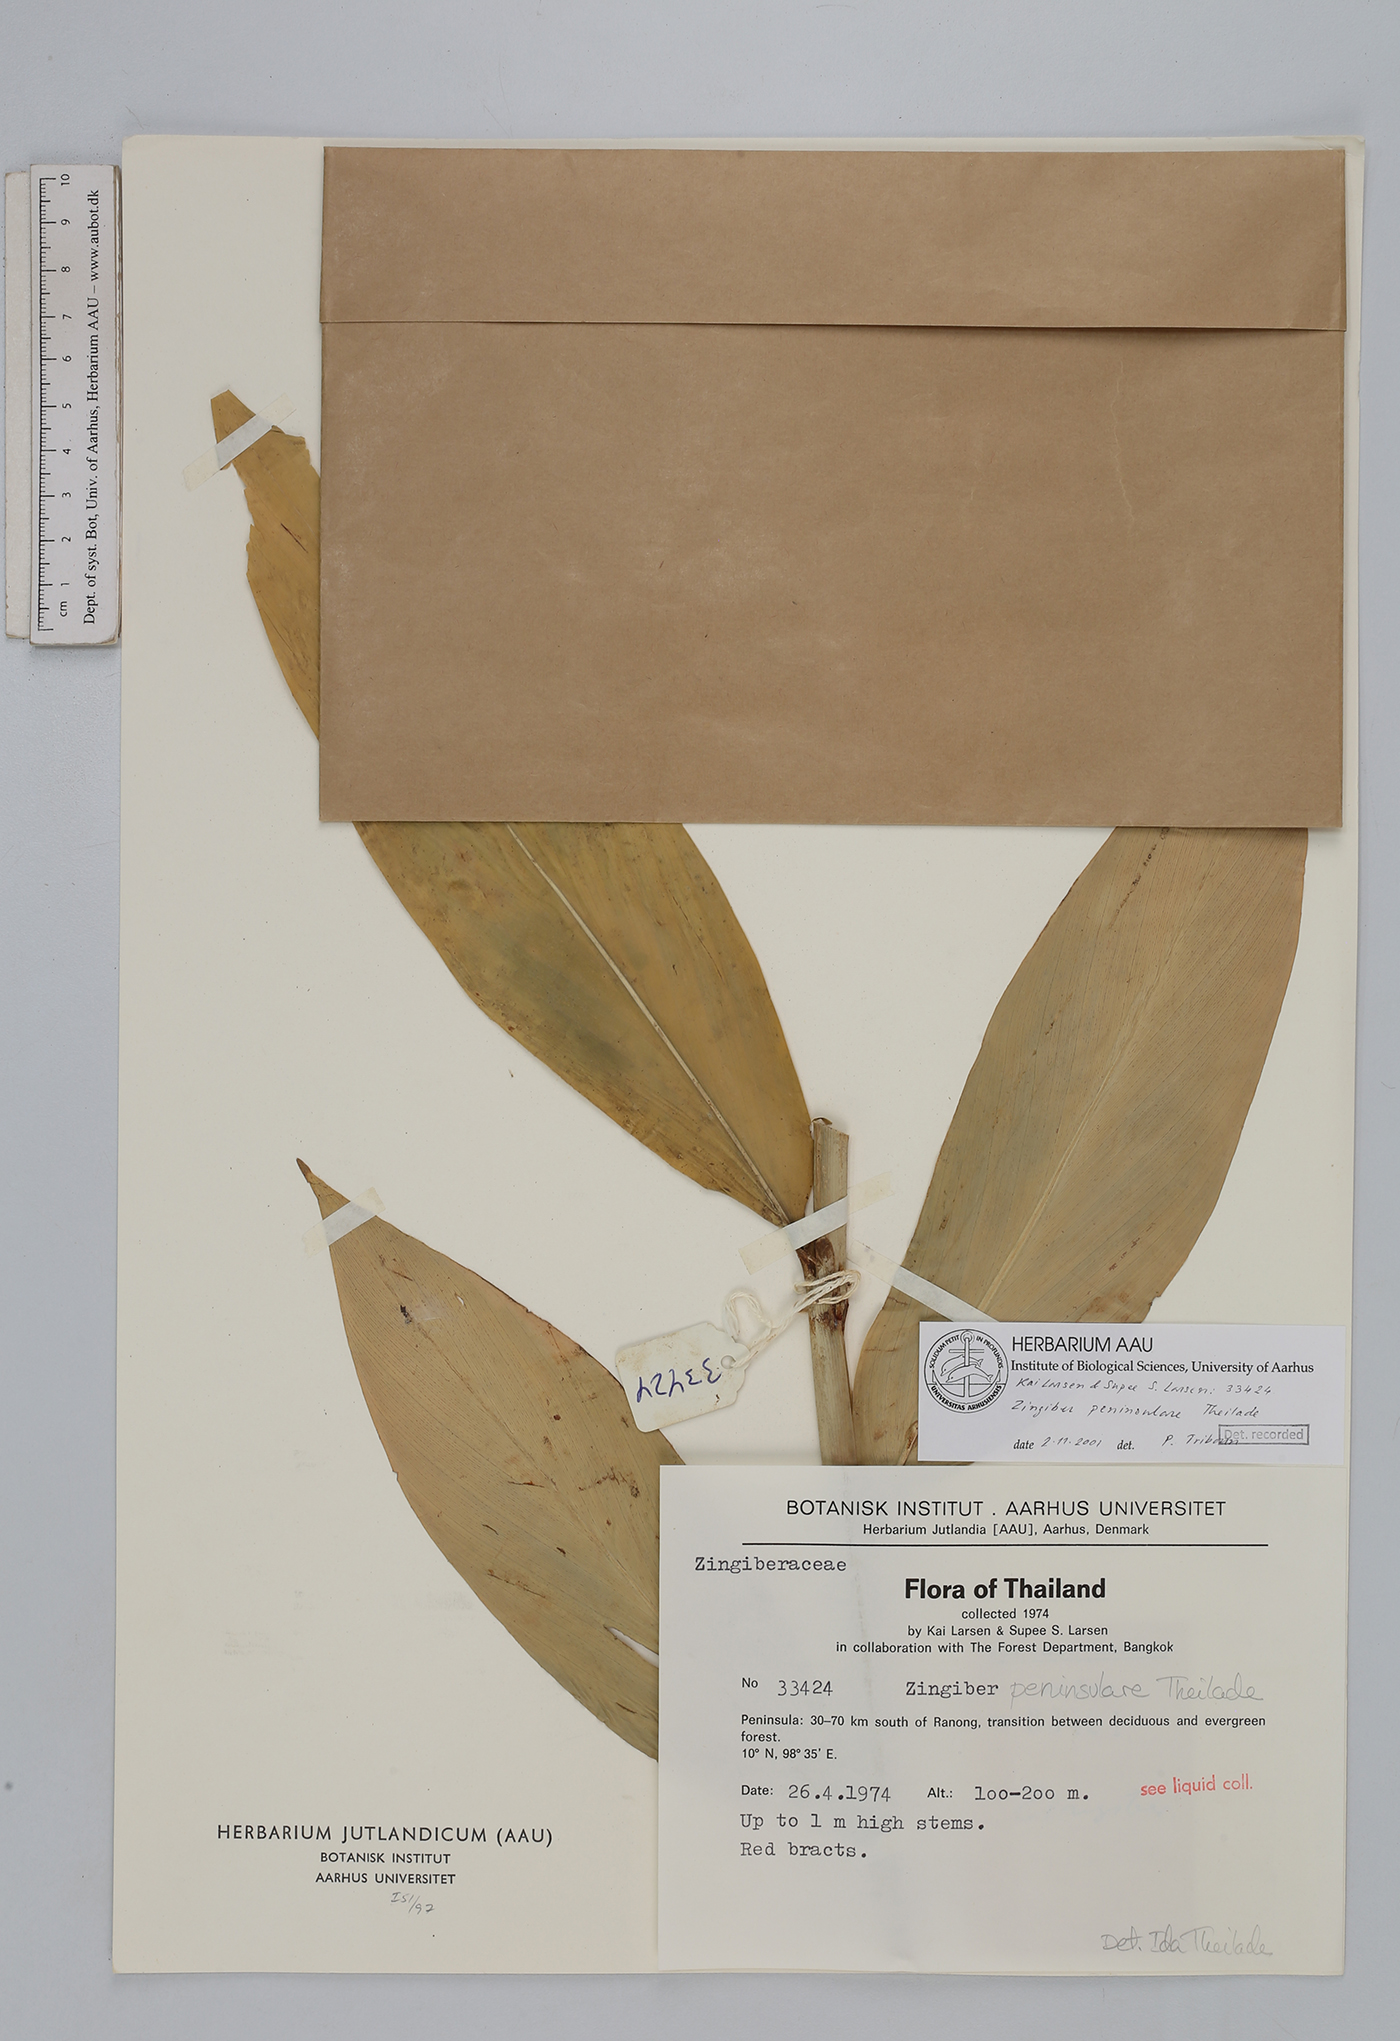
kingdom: Plantae
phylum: Tracheophyta
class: Liliopsida
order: Zingiberales
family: Zingiberaceae
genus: Zingiber
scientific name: Zingiber montanum
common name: Bengal ginger
